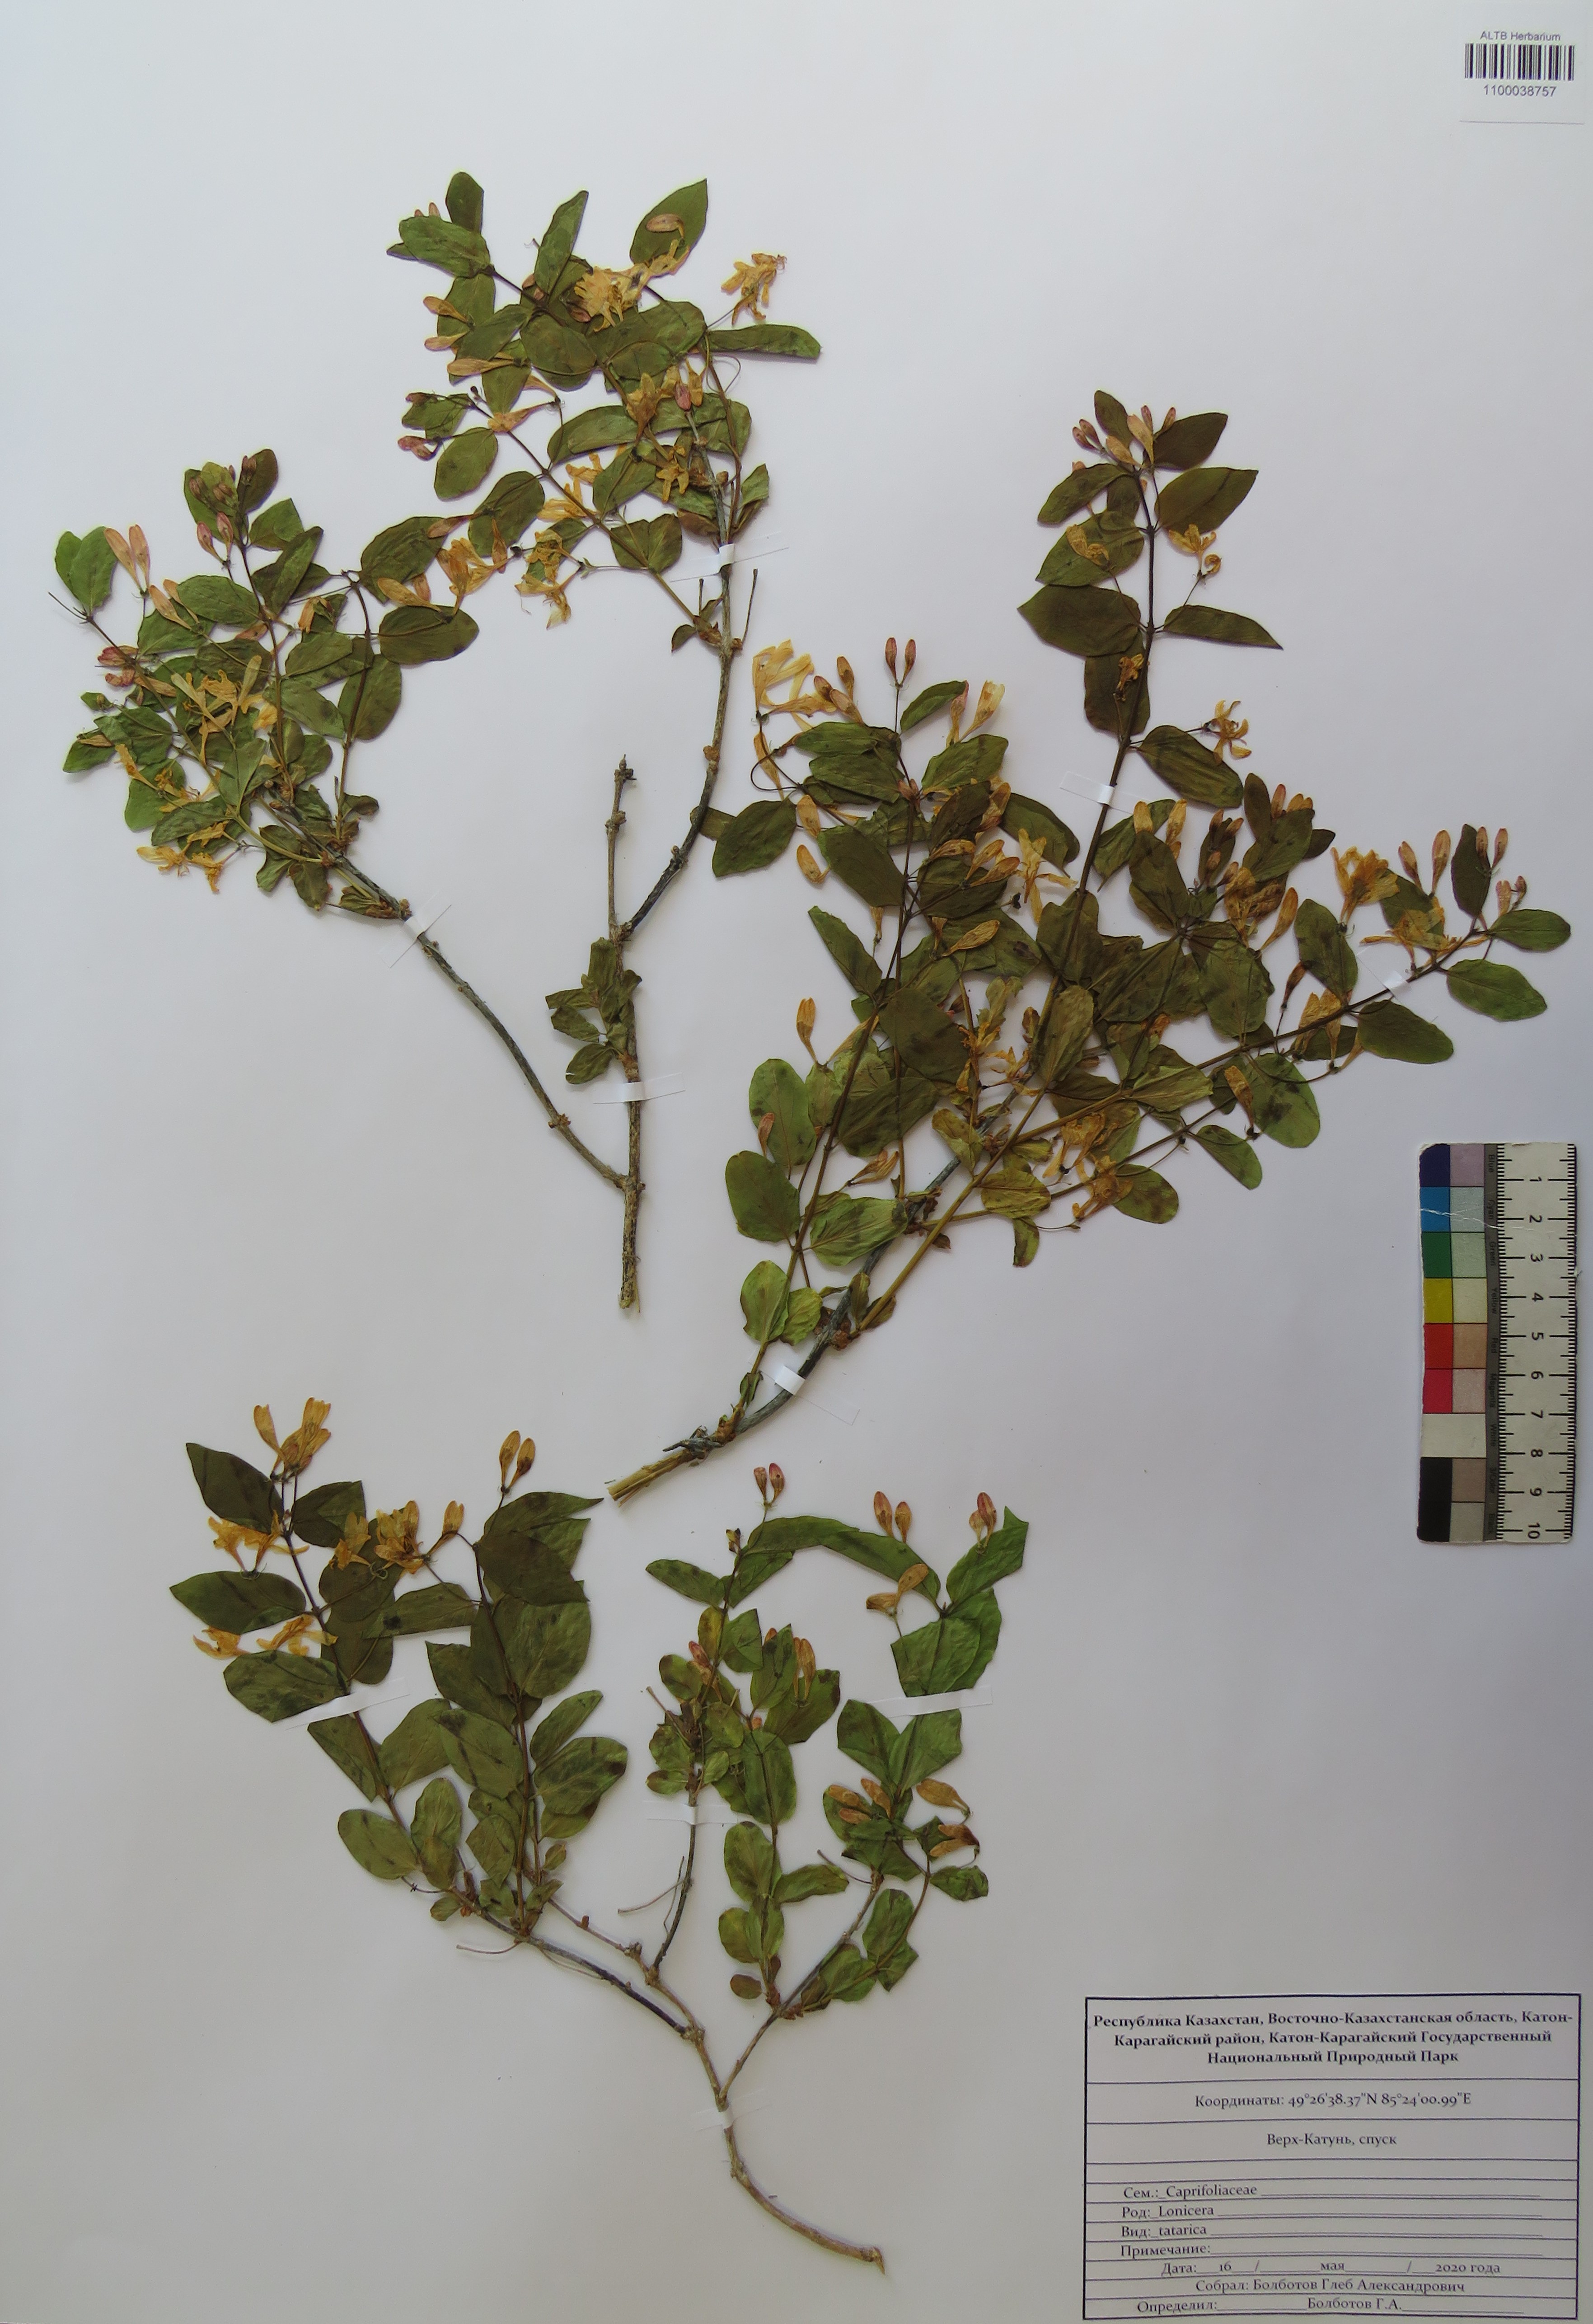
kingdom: Plantae
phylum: Tracheophyta
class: Magnoliopsida
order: Dipsacales
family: Caprifoliaceae
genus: Lonicera
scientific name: Lonicera tatarica
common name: Tatarian honeysuckle
